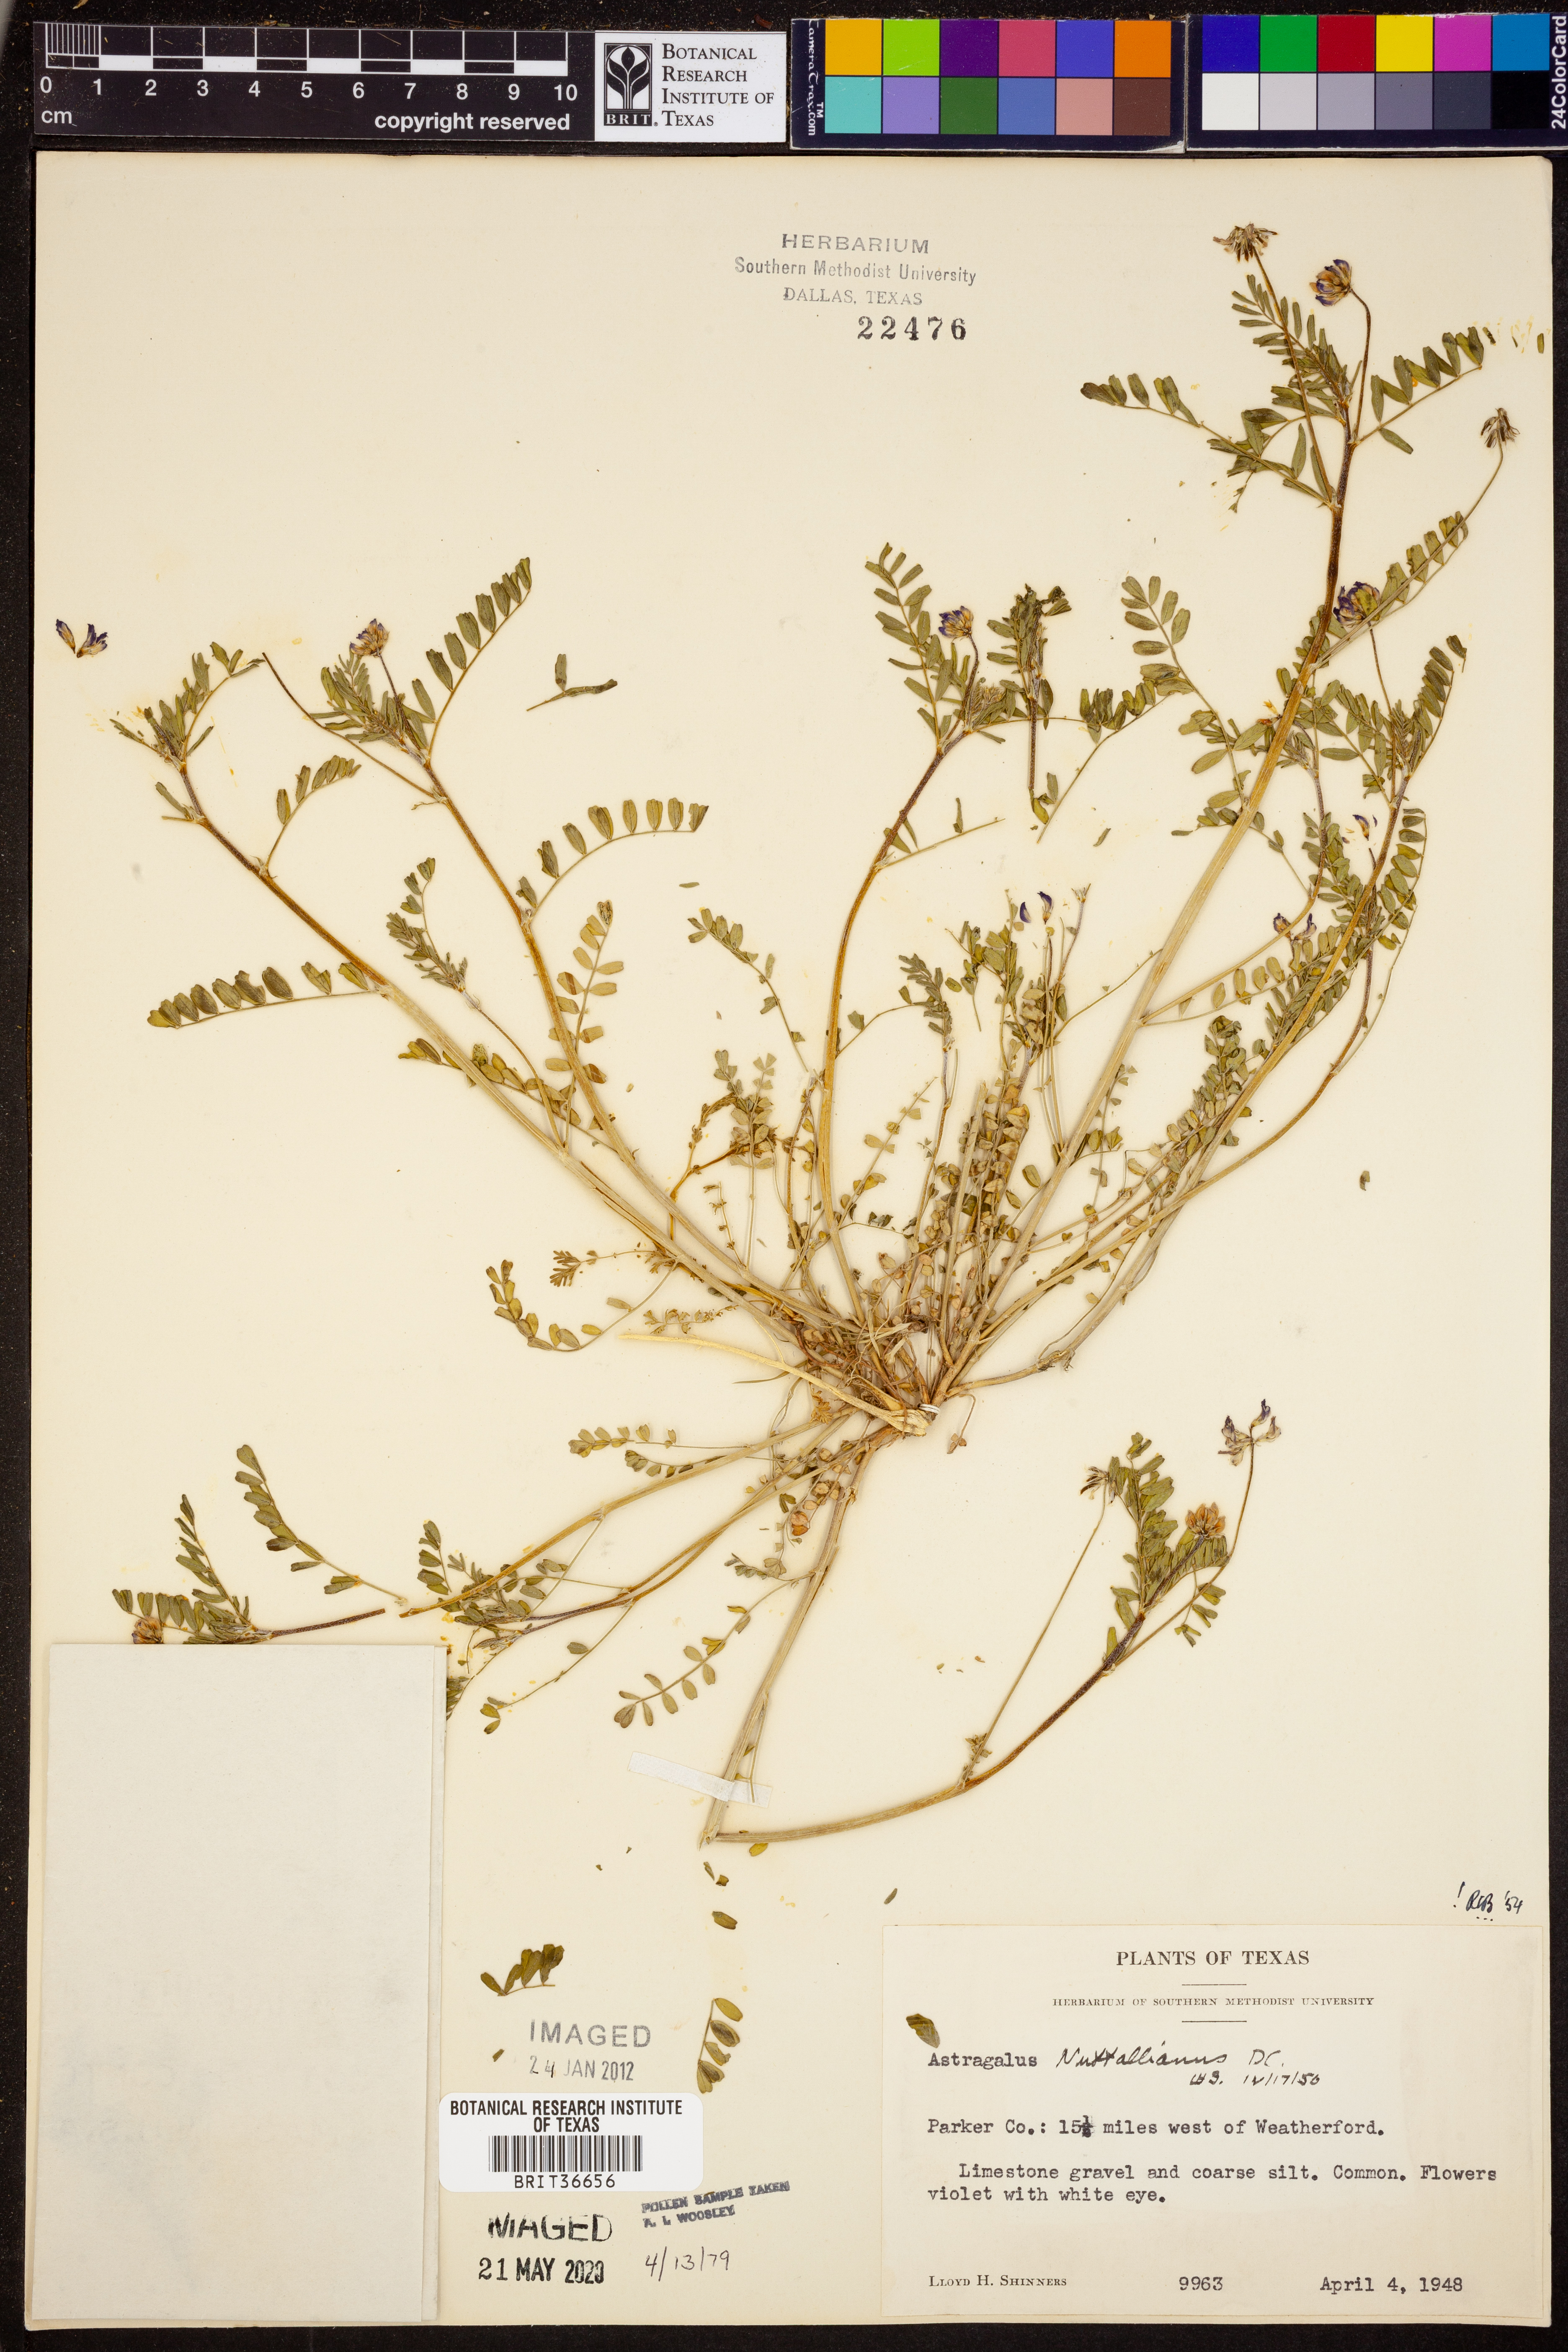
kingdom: Plantae
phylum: Tracheophyta
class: Magnoliopsida
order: Fabales
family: Fabaceae
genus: Astragalus
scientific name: Astragalus nuttallianus
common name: Smallflowered milkvetch
